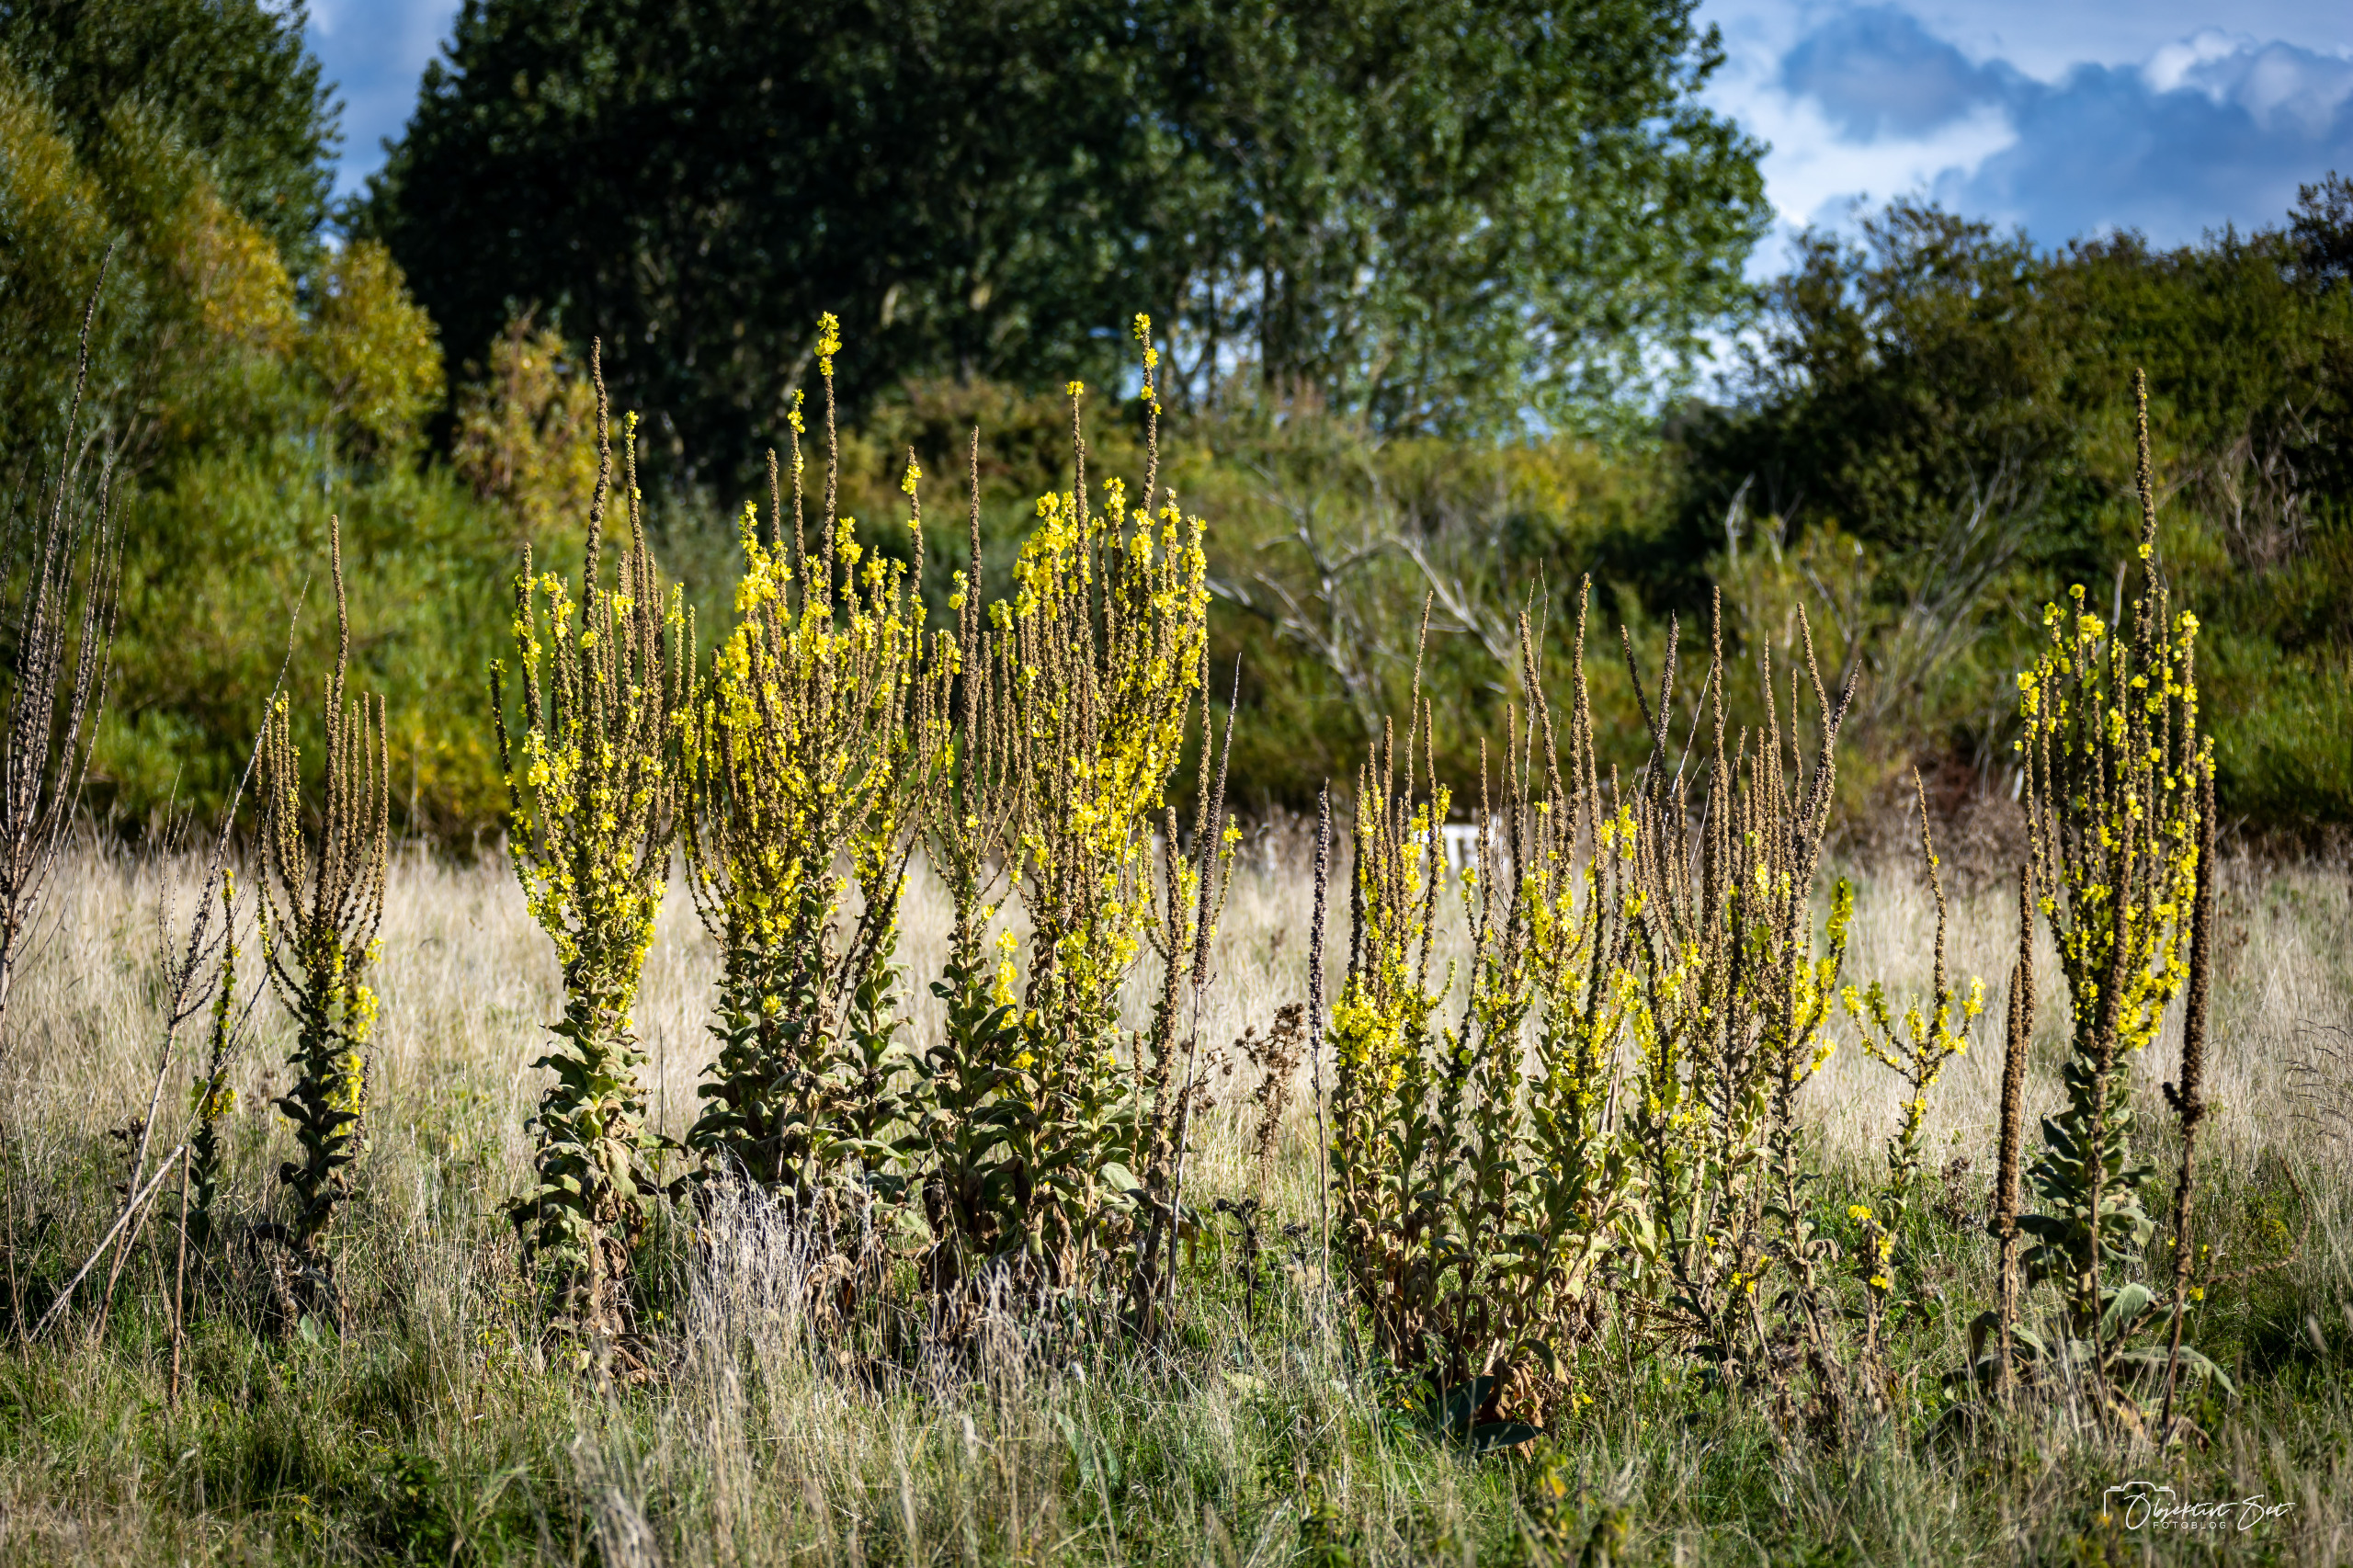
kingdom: Plantae
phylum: Tracheophyta
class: Magnoliopsida
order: Lamiales
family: Scrophulariaceae
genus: Verbascum
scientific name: Verbascum speciosum
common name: Kandelaber-kongelys
